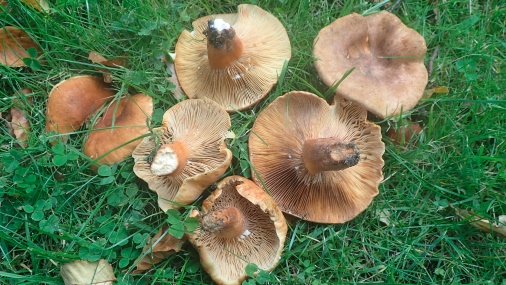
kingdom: Fungi
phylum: Basidiomycota
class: Agaricomycetes
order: Russulales
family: Russulaceae
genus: Lactarius
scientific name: Lactarius fulvissimus
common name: ræve-mælkehat
